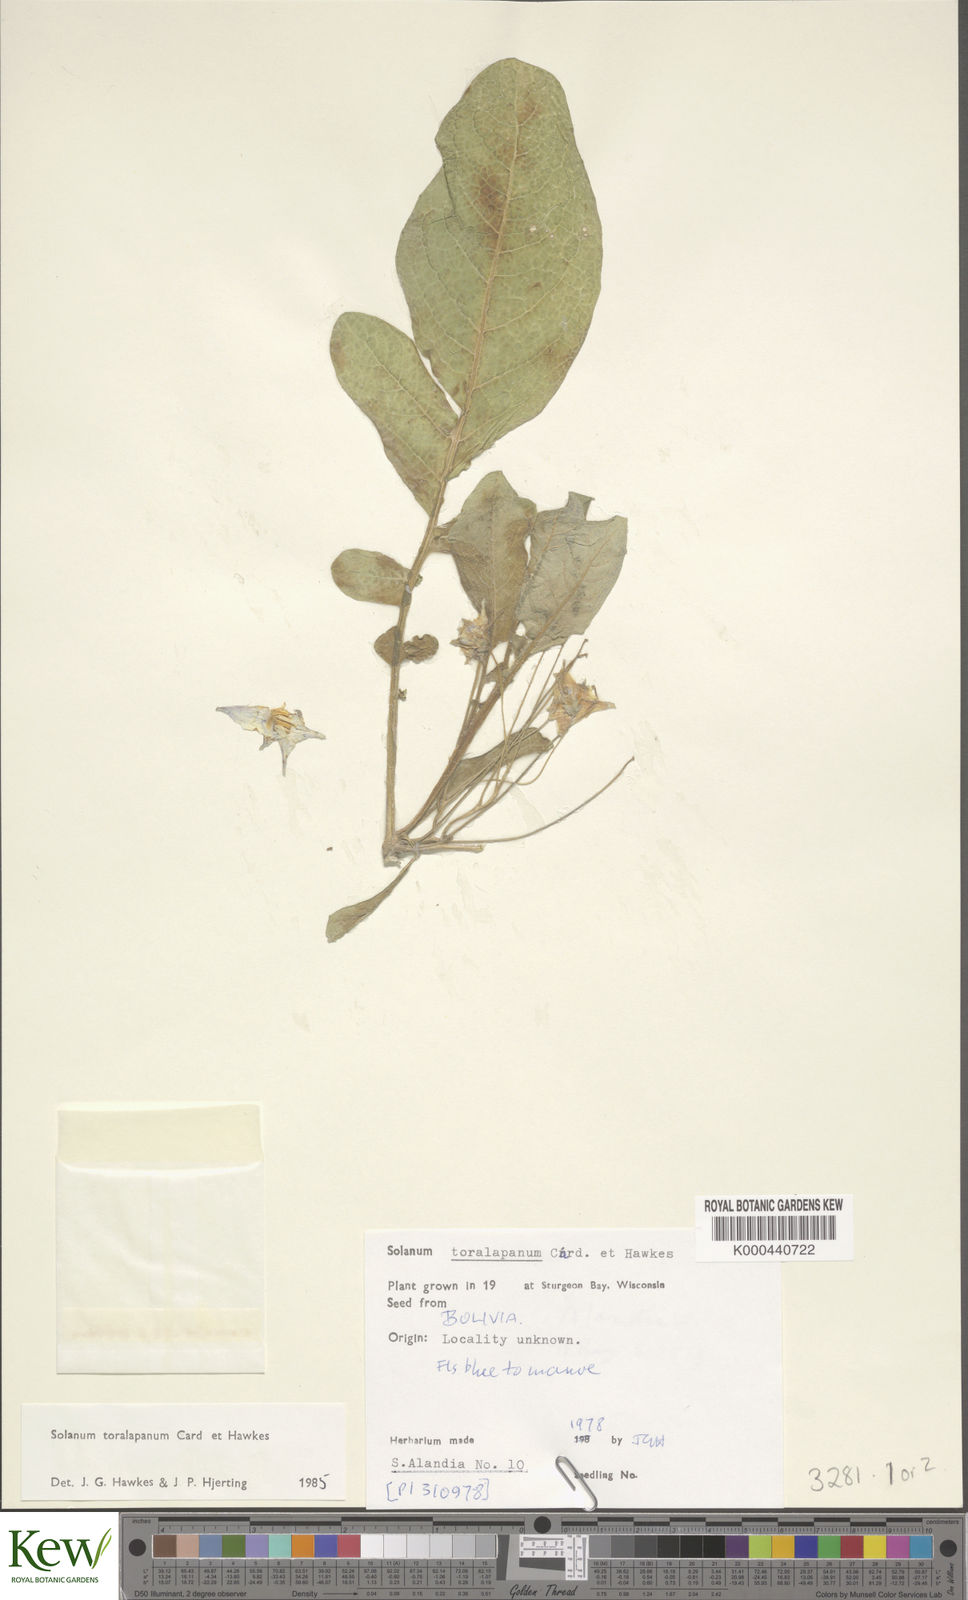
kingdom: Plantae
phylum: Tracheophyta
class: Magnoliopsida
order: Solanales
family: Solanaceae
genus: Solanum
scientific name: Solanum boliviense
